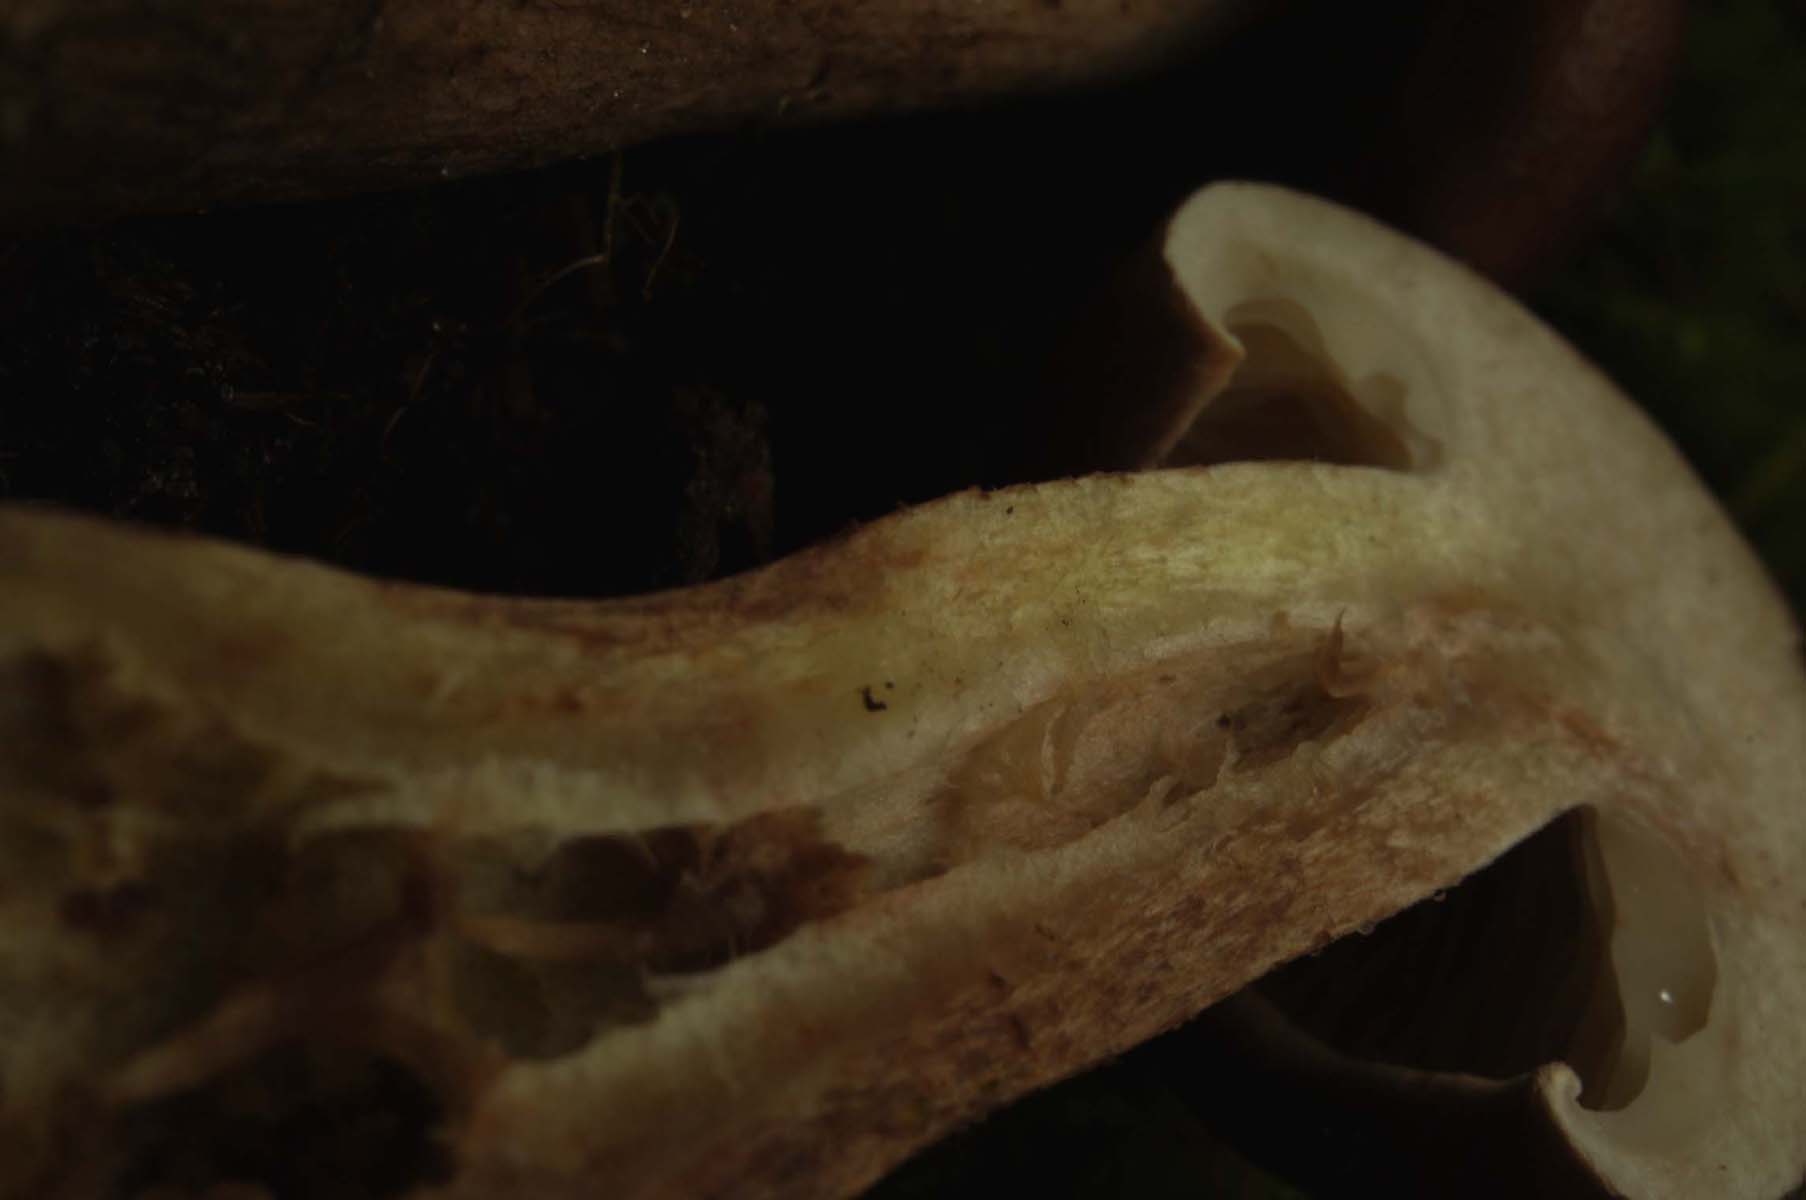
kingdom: Fungi
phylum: Basidiomycota
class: Agaricomycetes
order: Agaricales
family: Tricholomataceae
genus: Tricholoma
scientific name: Tricholoma fulvum
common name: birke-ridderhat
